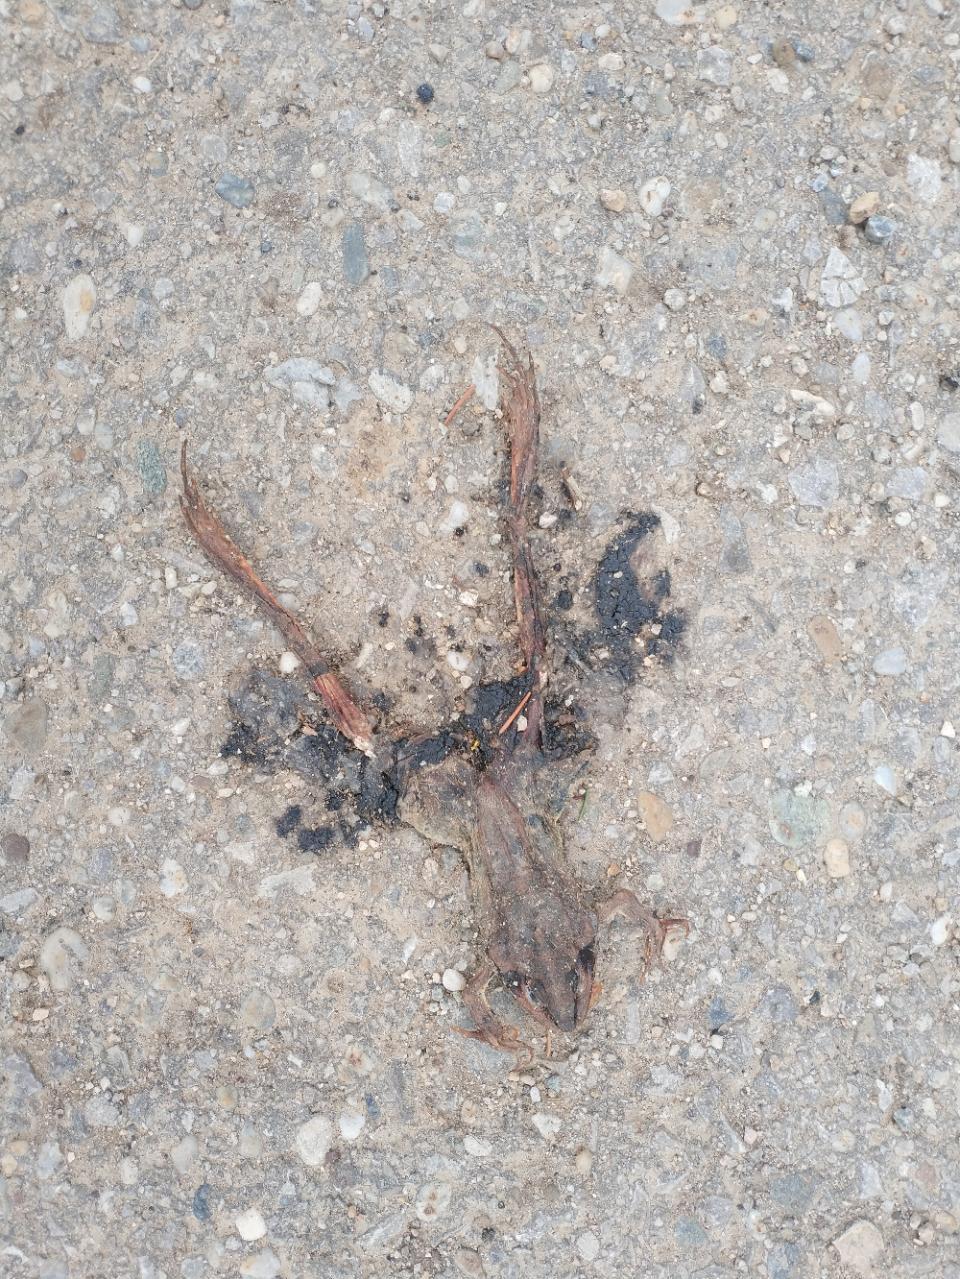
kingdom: Animalia
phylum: Chordata
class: Amphibia
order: Anura
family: Ranidae
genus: Rana
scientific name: Rana dalmatina
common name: Agile frog
